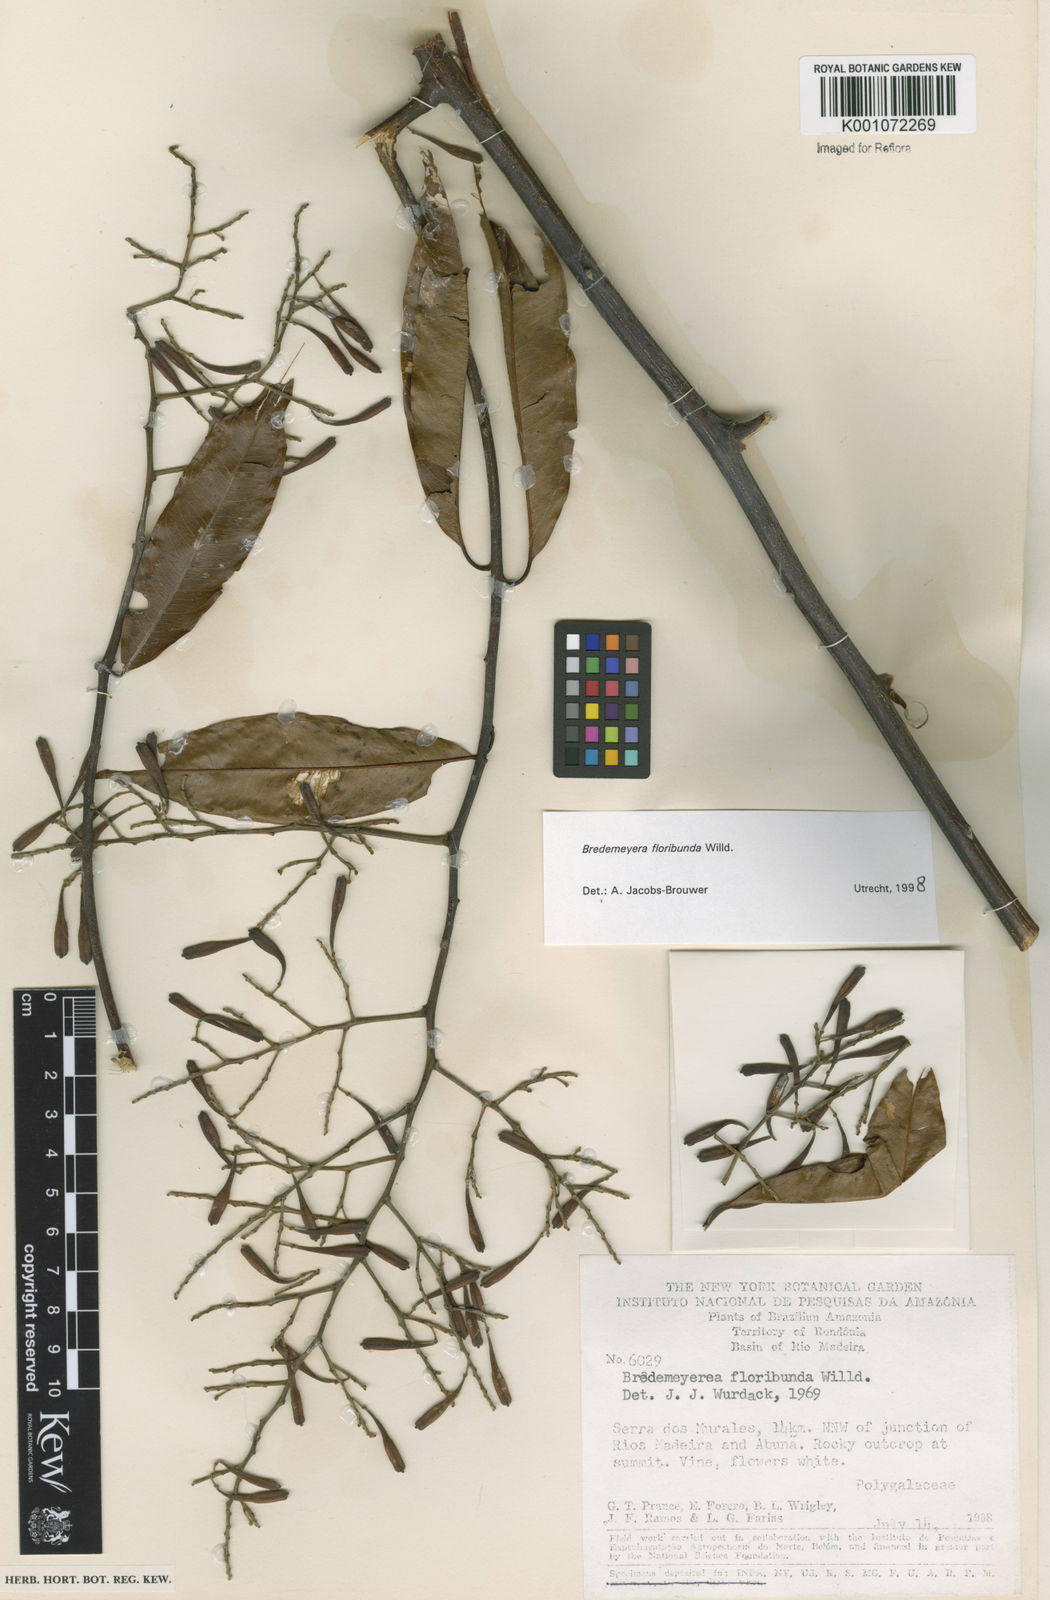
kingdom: Plantae
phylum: Tracheophyta
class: Magnoliopsida
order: Fabales
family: Polygalaceae
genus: Bredemeyera
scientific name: Bredemeyera floribunda
